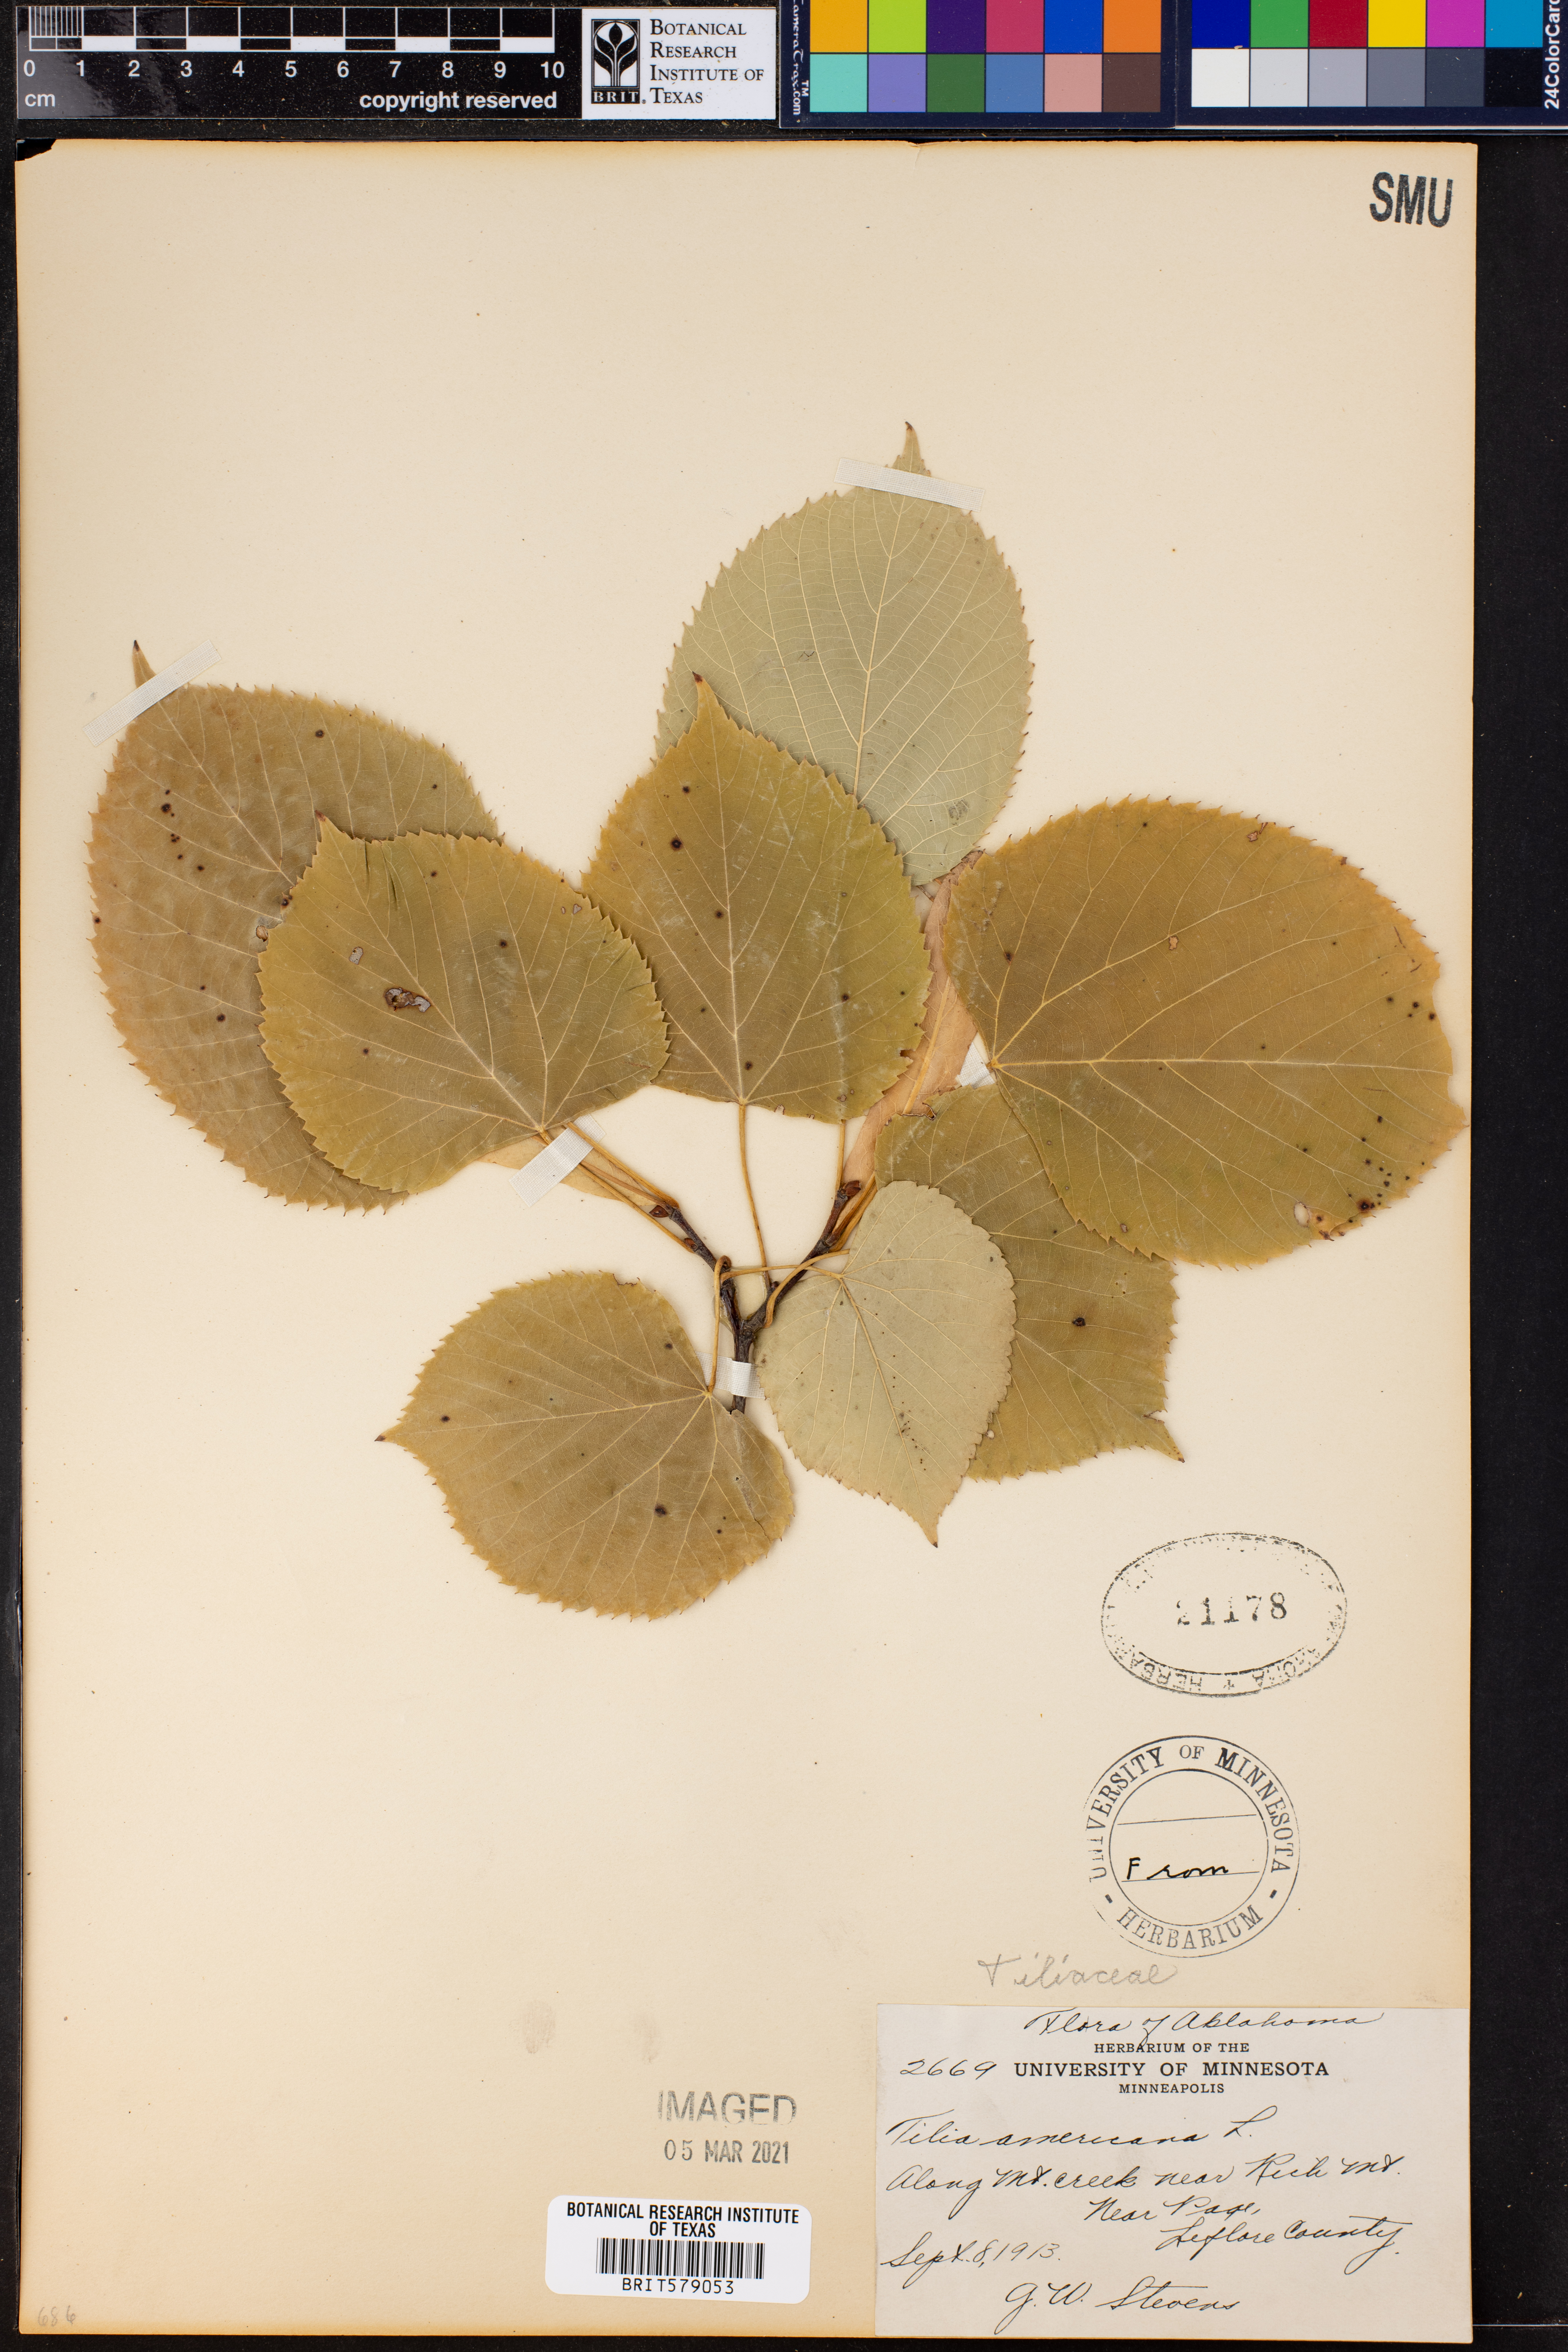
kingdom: Plantae
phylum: Tracheophyta
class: Magnoliopsida
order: Malvales
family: Malvaceae
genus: Tilia
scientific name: Tilia americana
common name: Basswood
